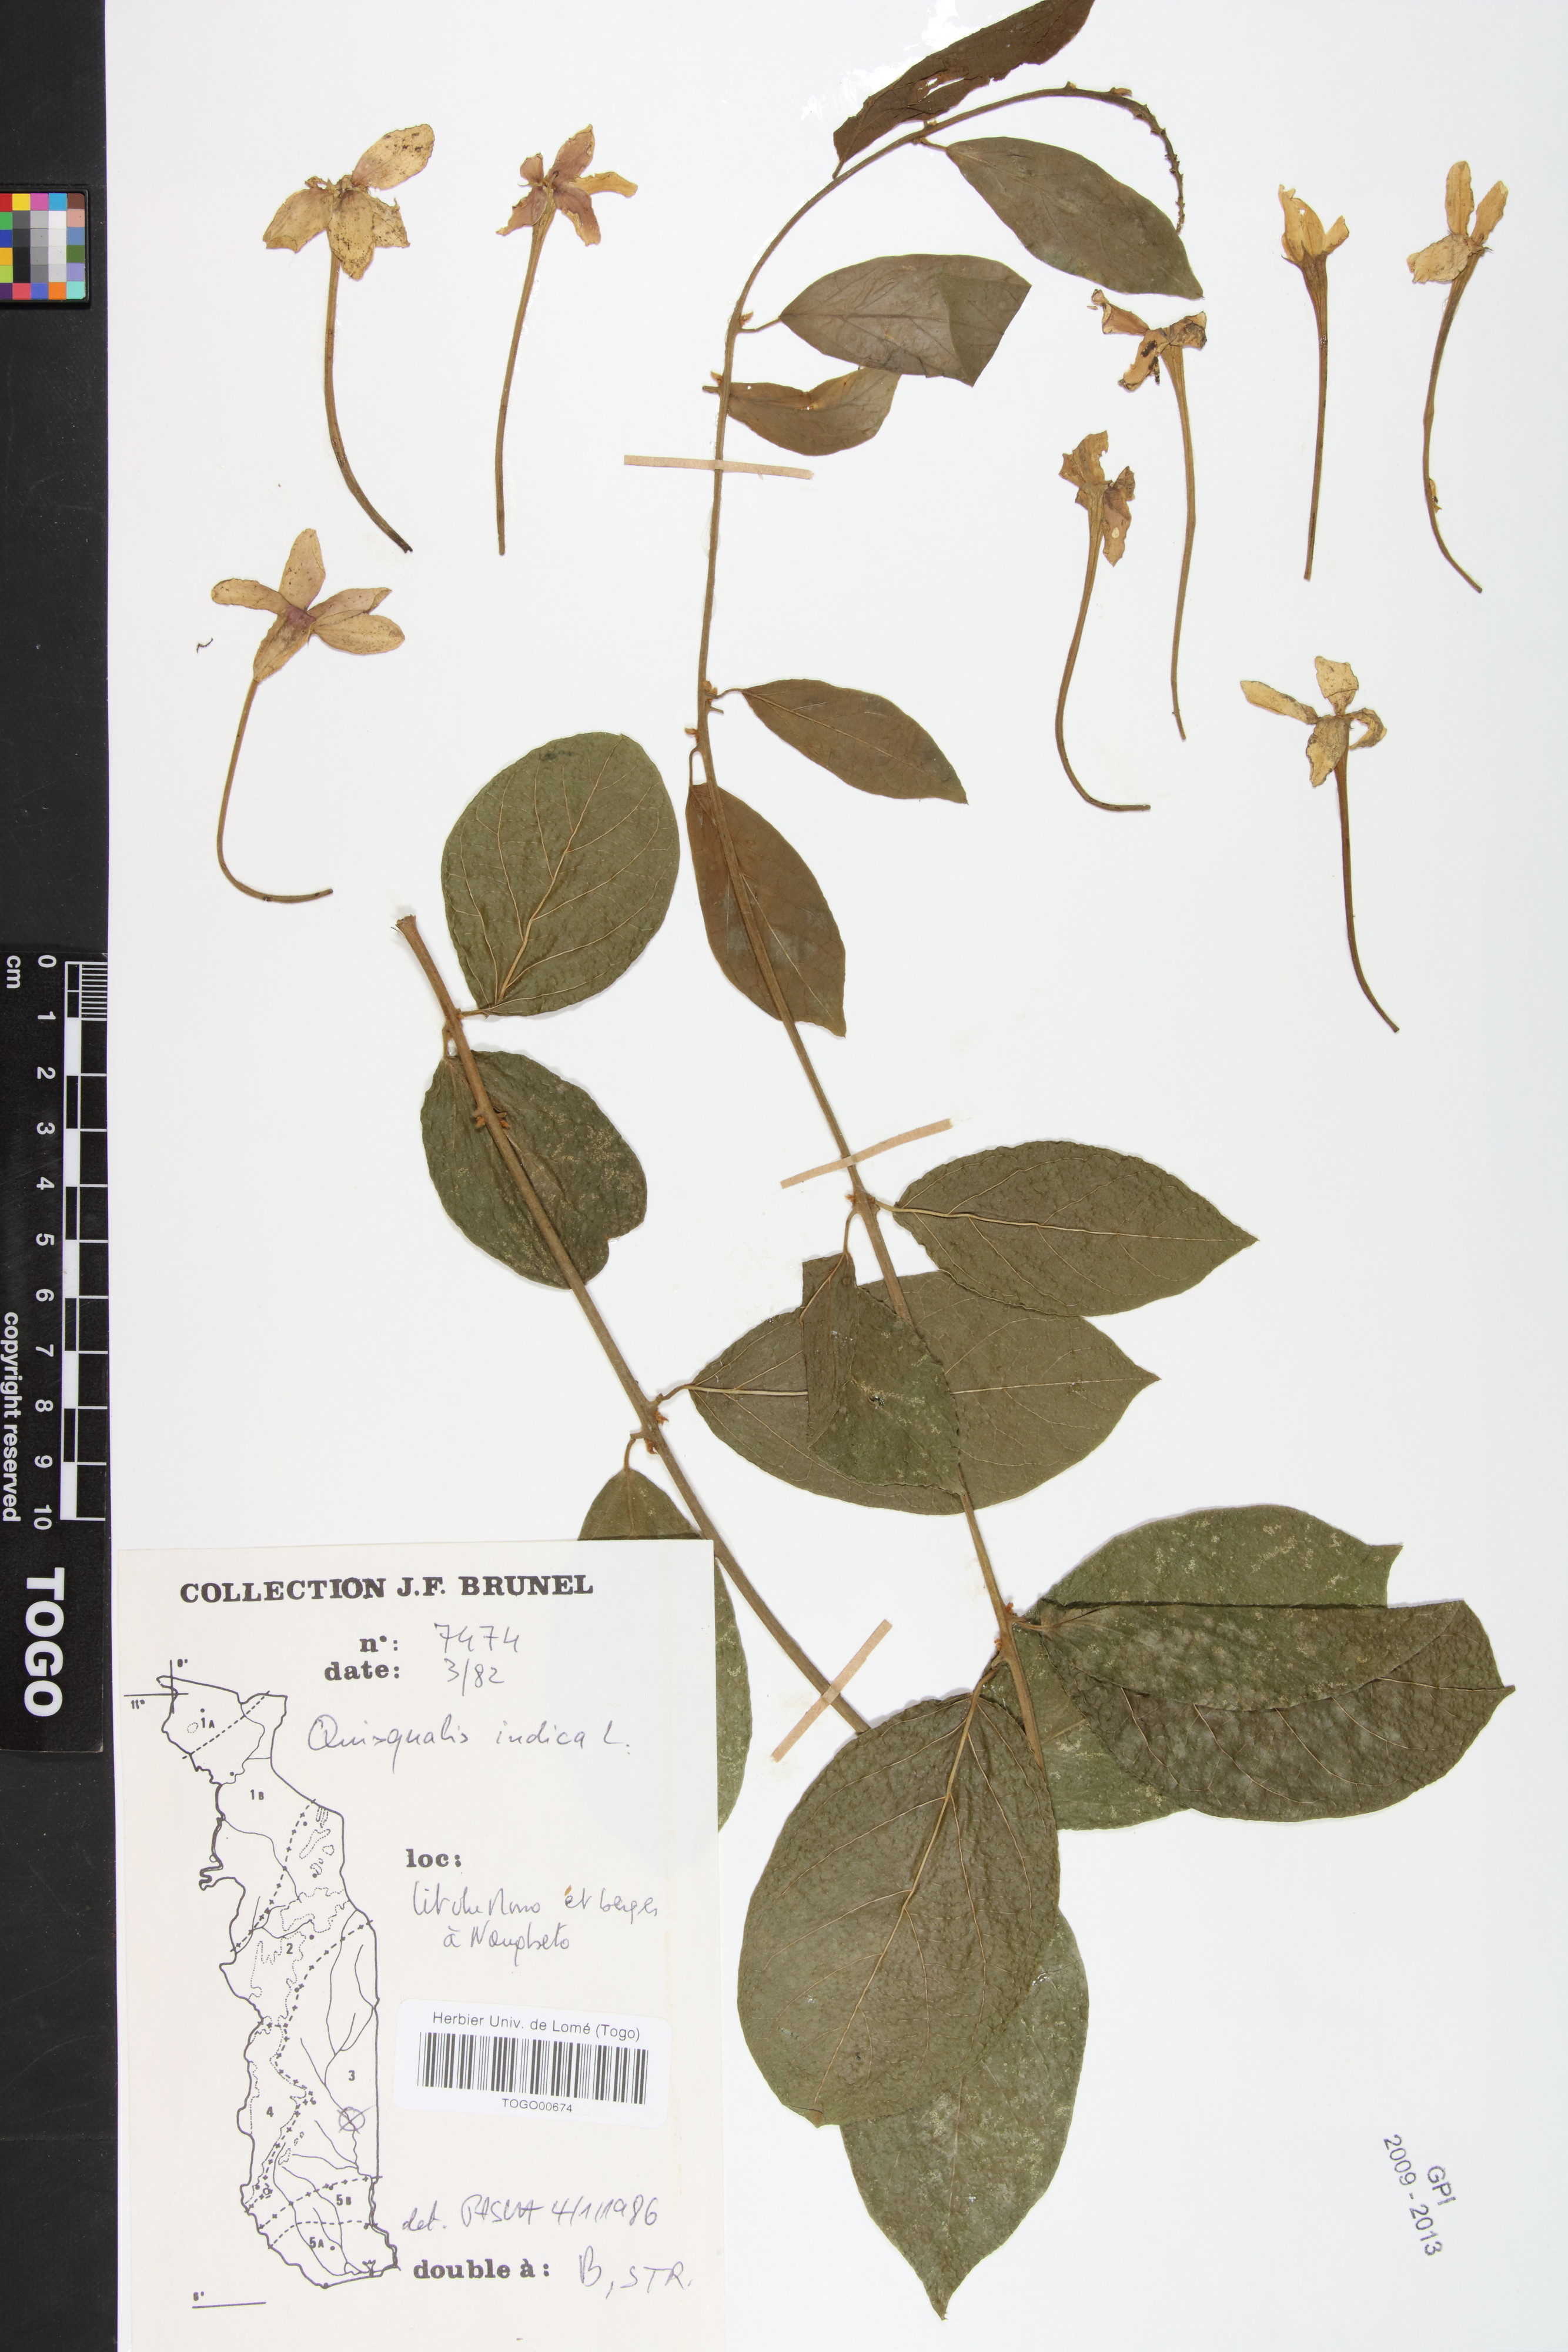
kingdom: Plantae
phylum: Tracheophyta
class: Magnoliopsida
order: Myrtales
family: Combretaceae
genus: Combretum
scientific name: Combretum indicum
